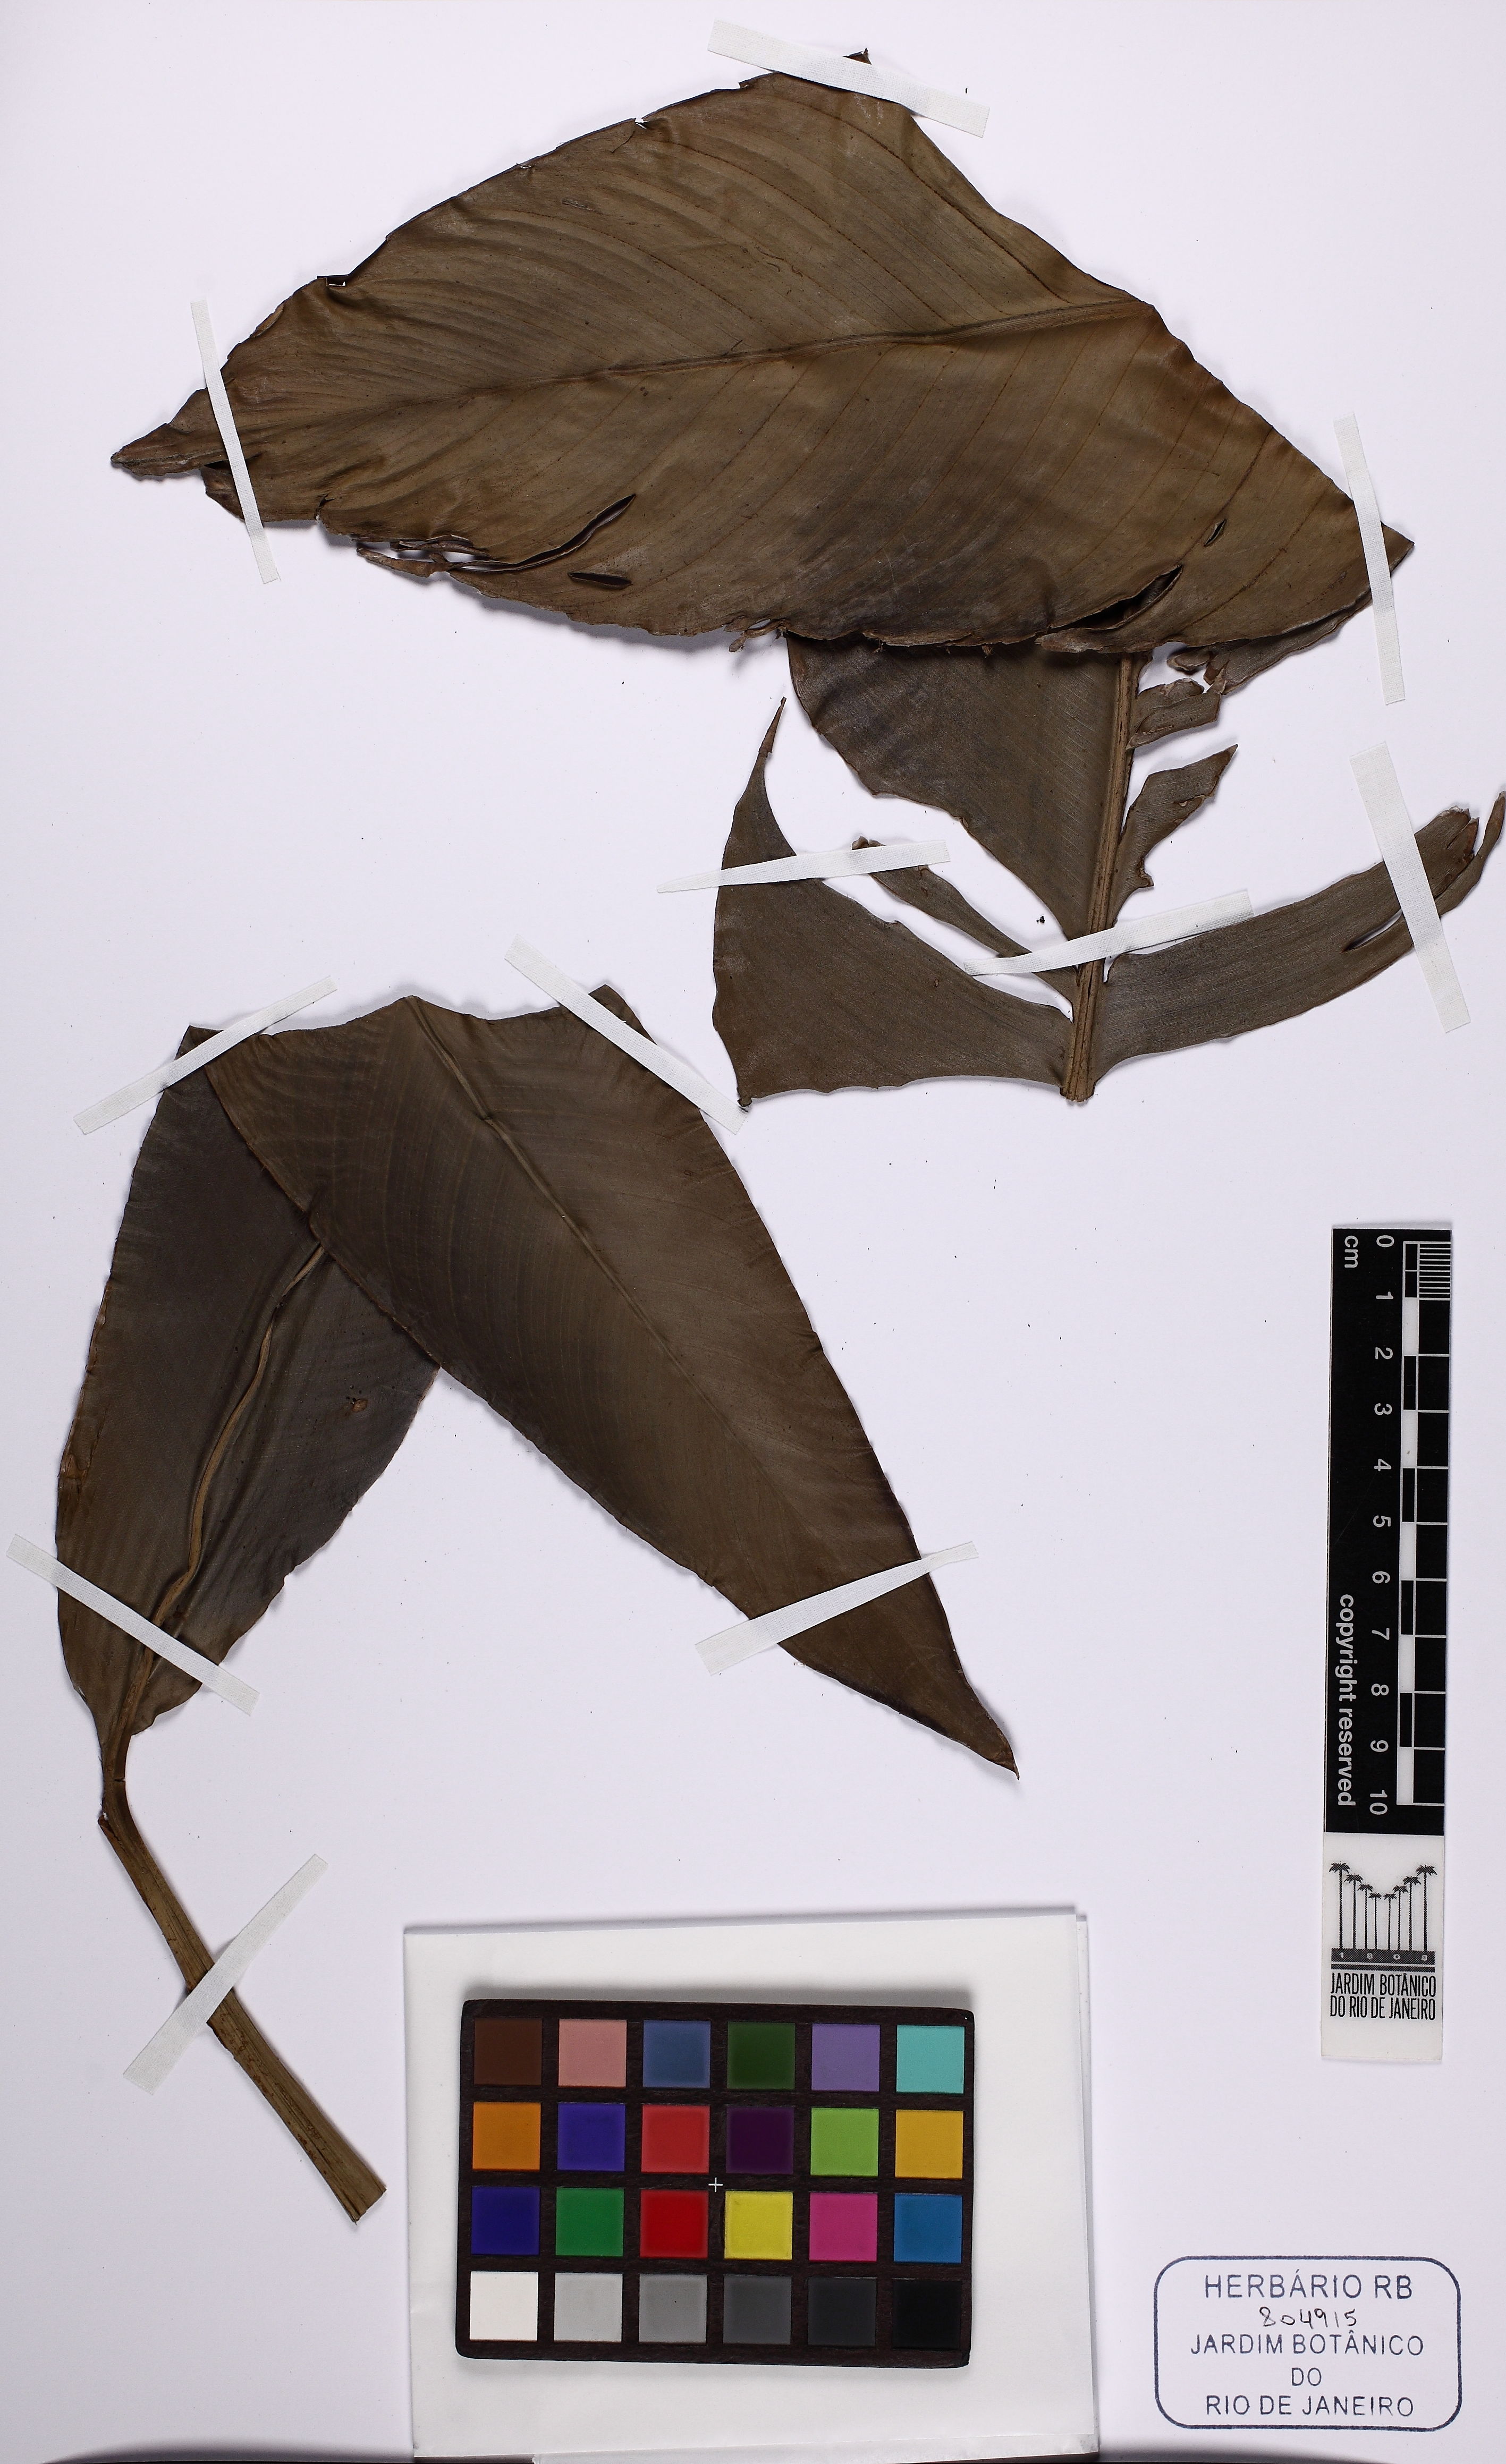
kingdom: Plantae
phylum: Tracheophyta
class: Liliopsida
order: Zingiberales
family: Heliconiaceae
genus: Heliconia
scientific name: Heliconia hirsuta
